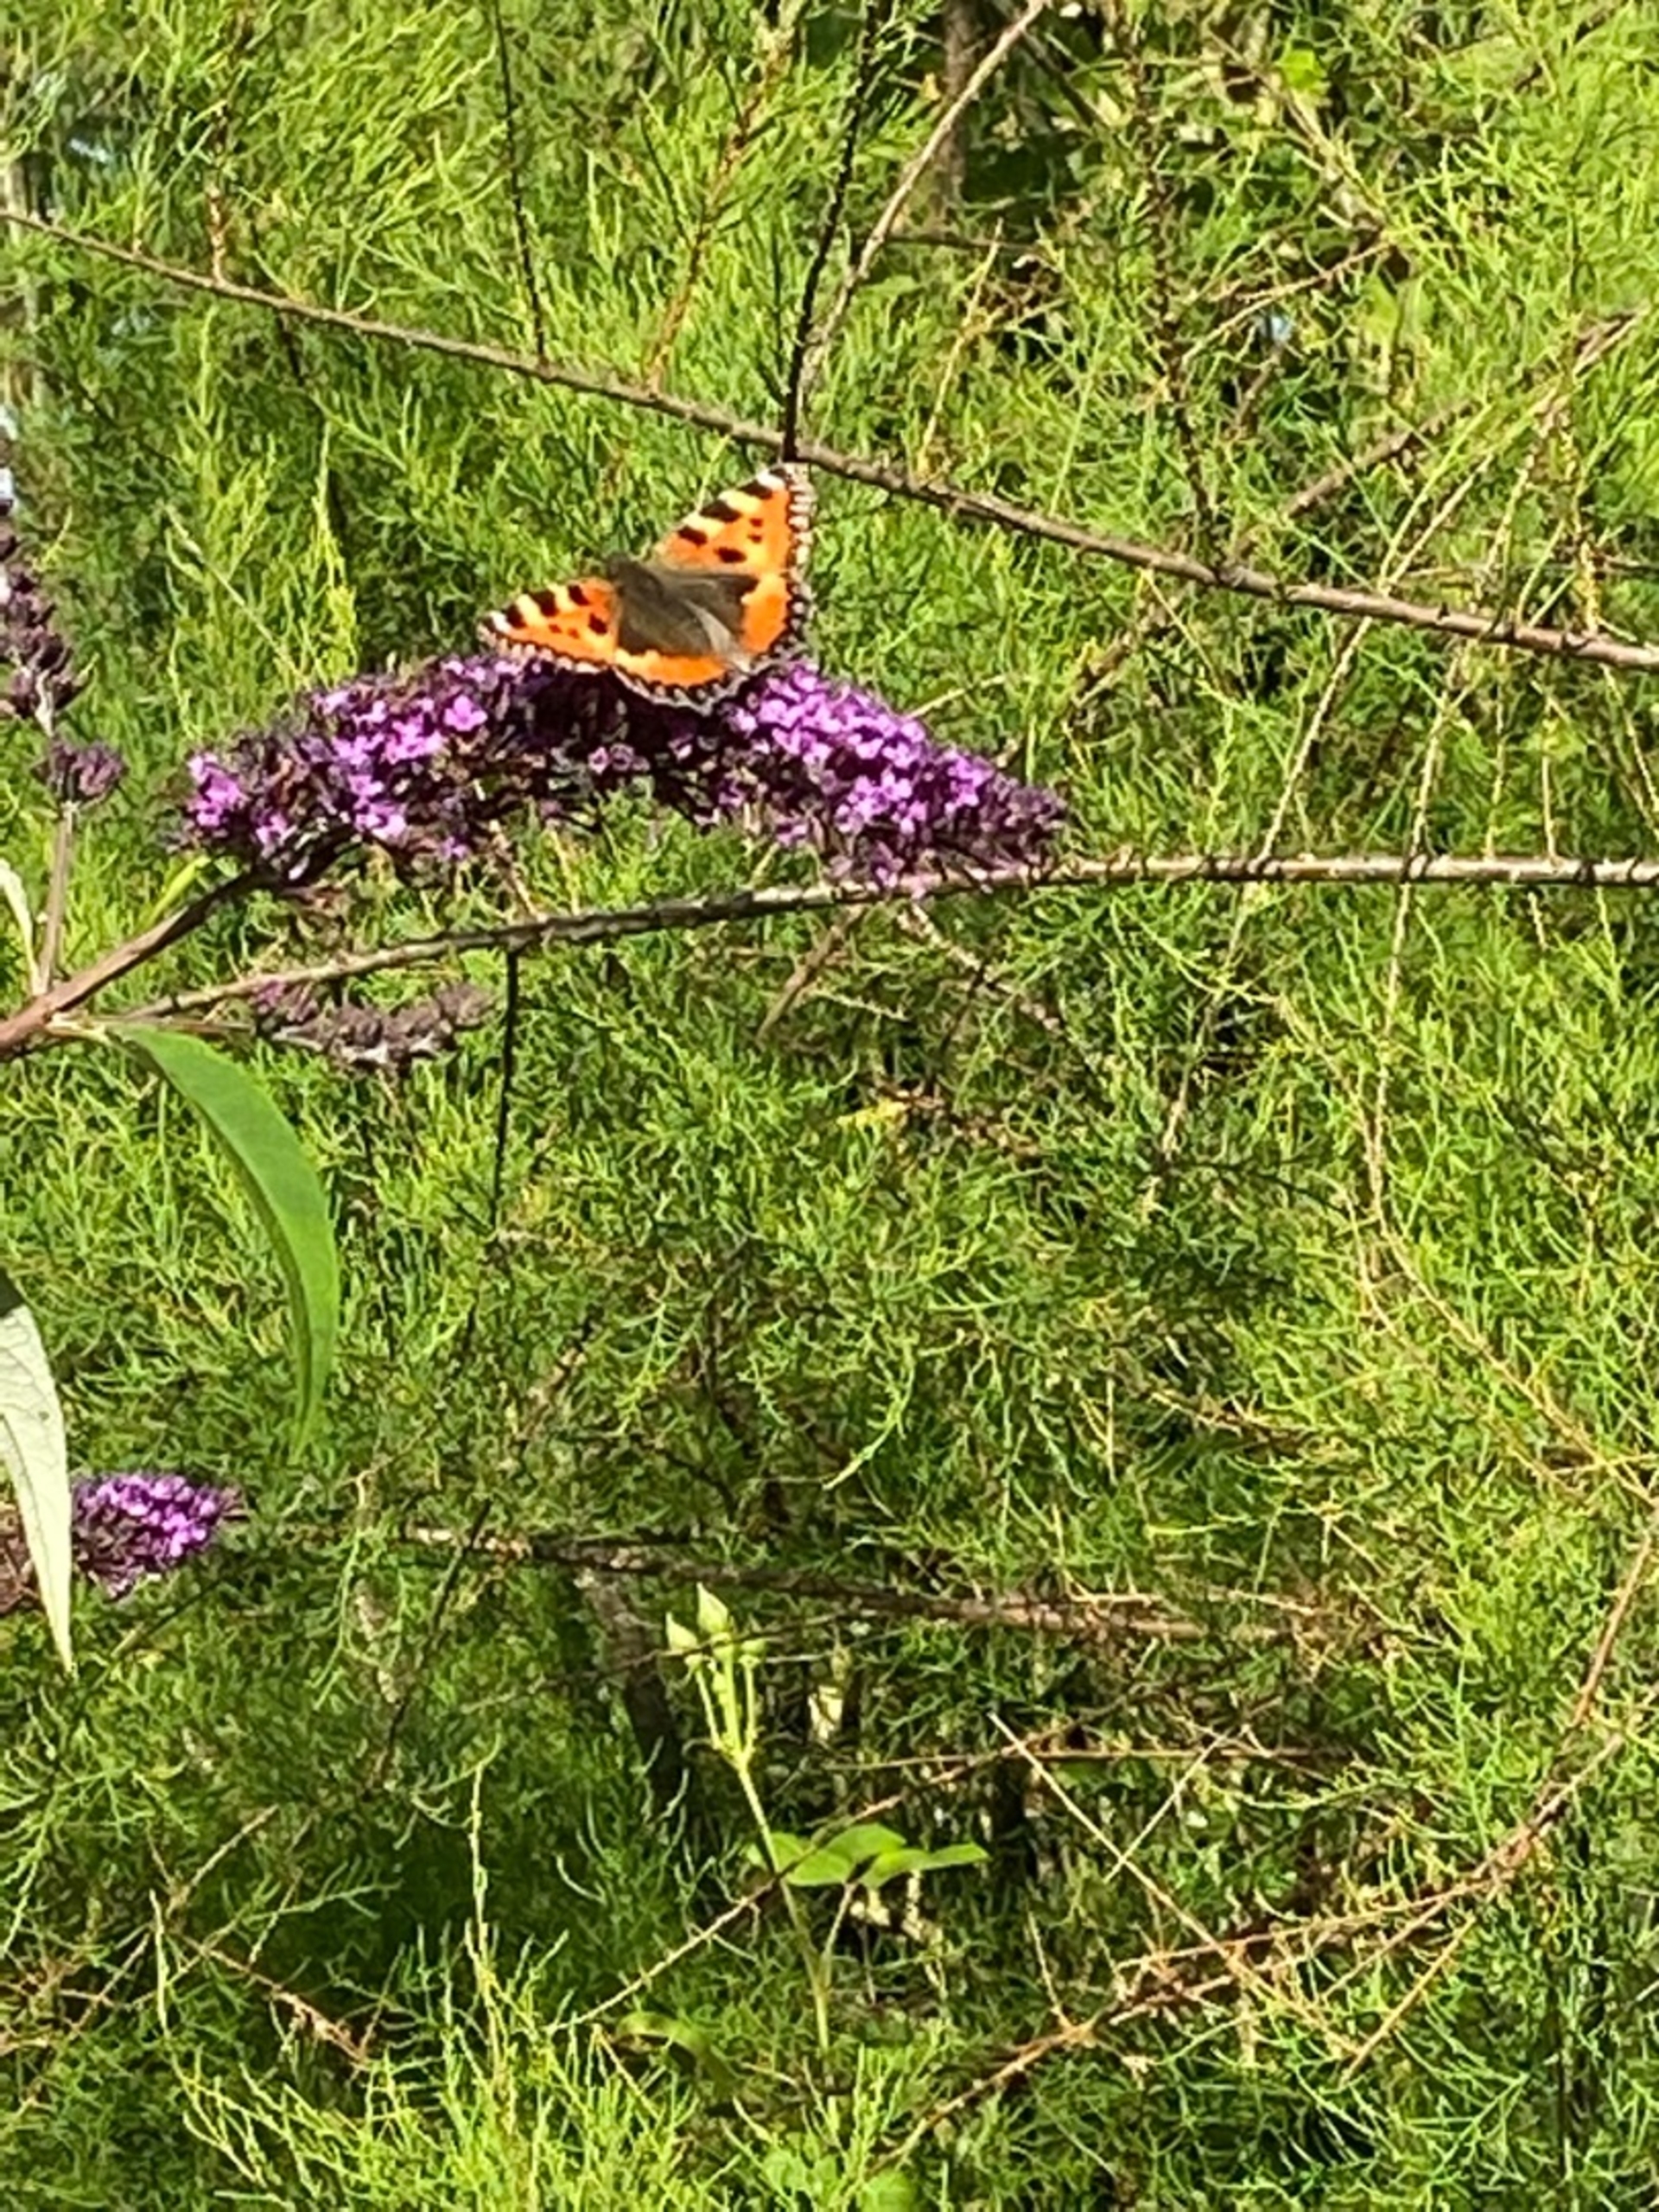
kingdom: Animalia
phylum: Arthropoda
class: Insecta
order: Lepidoptera
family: Nymphalidae
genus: Aglais
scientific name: Aglais urticae
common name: Nældens takvinge
